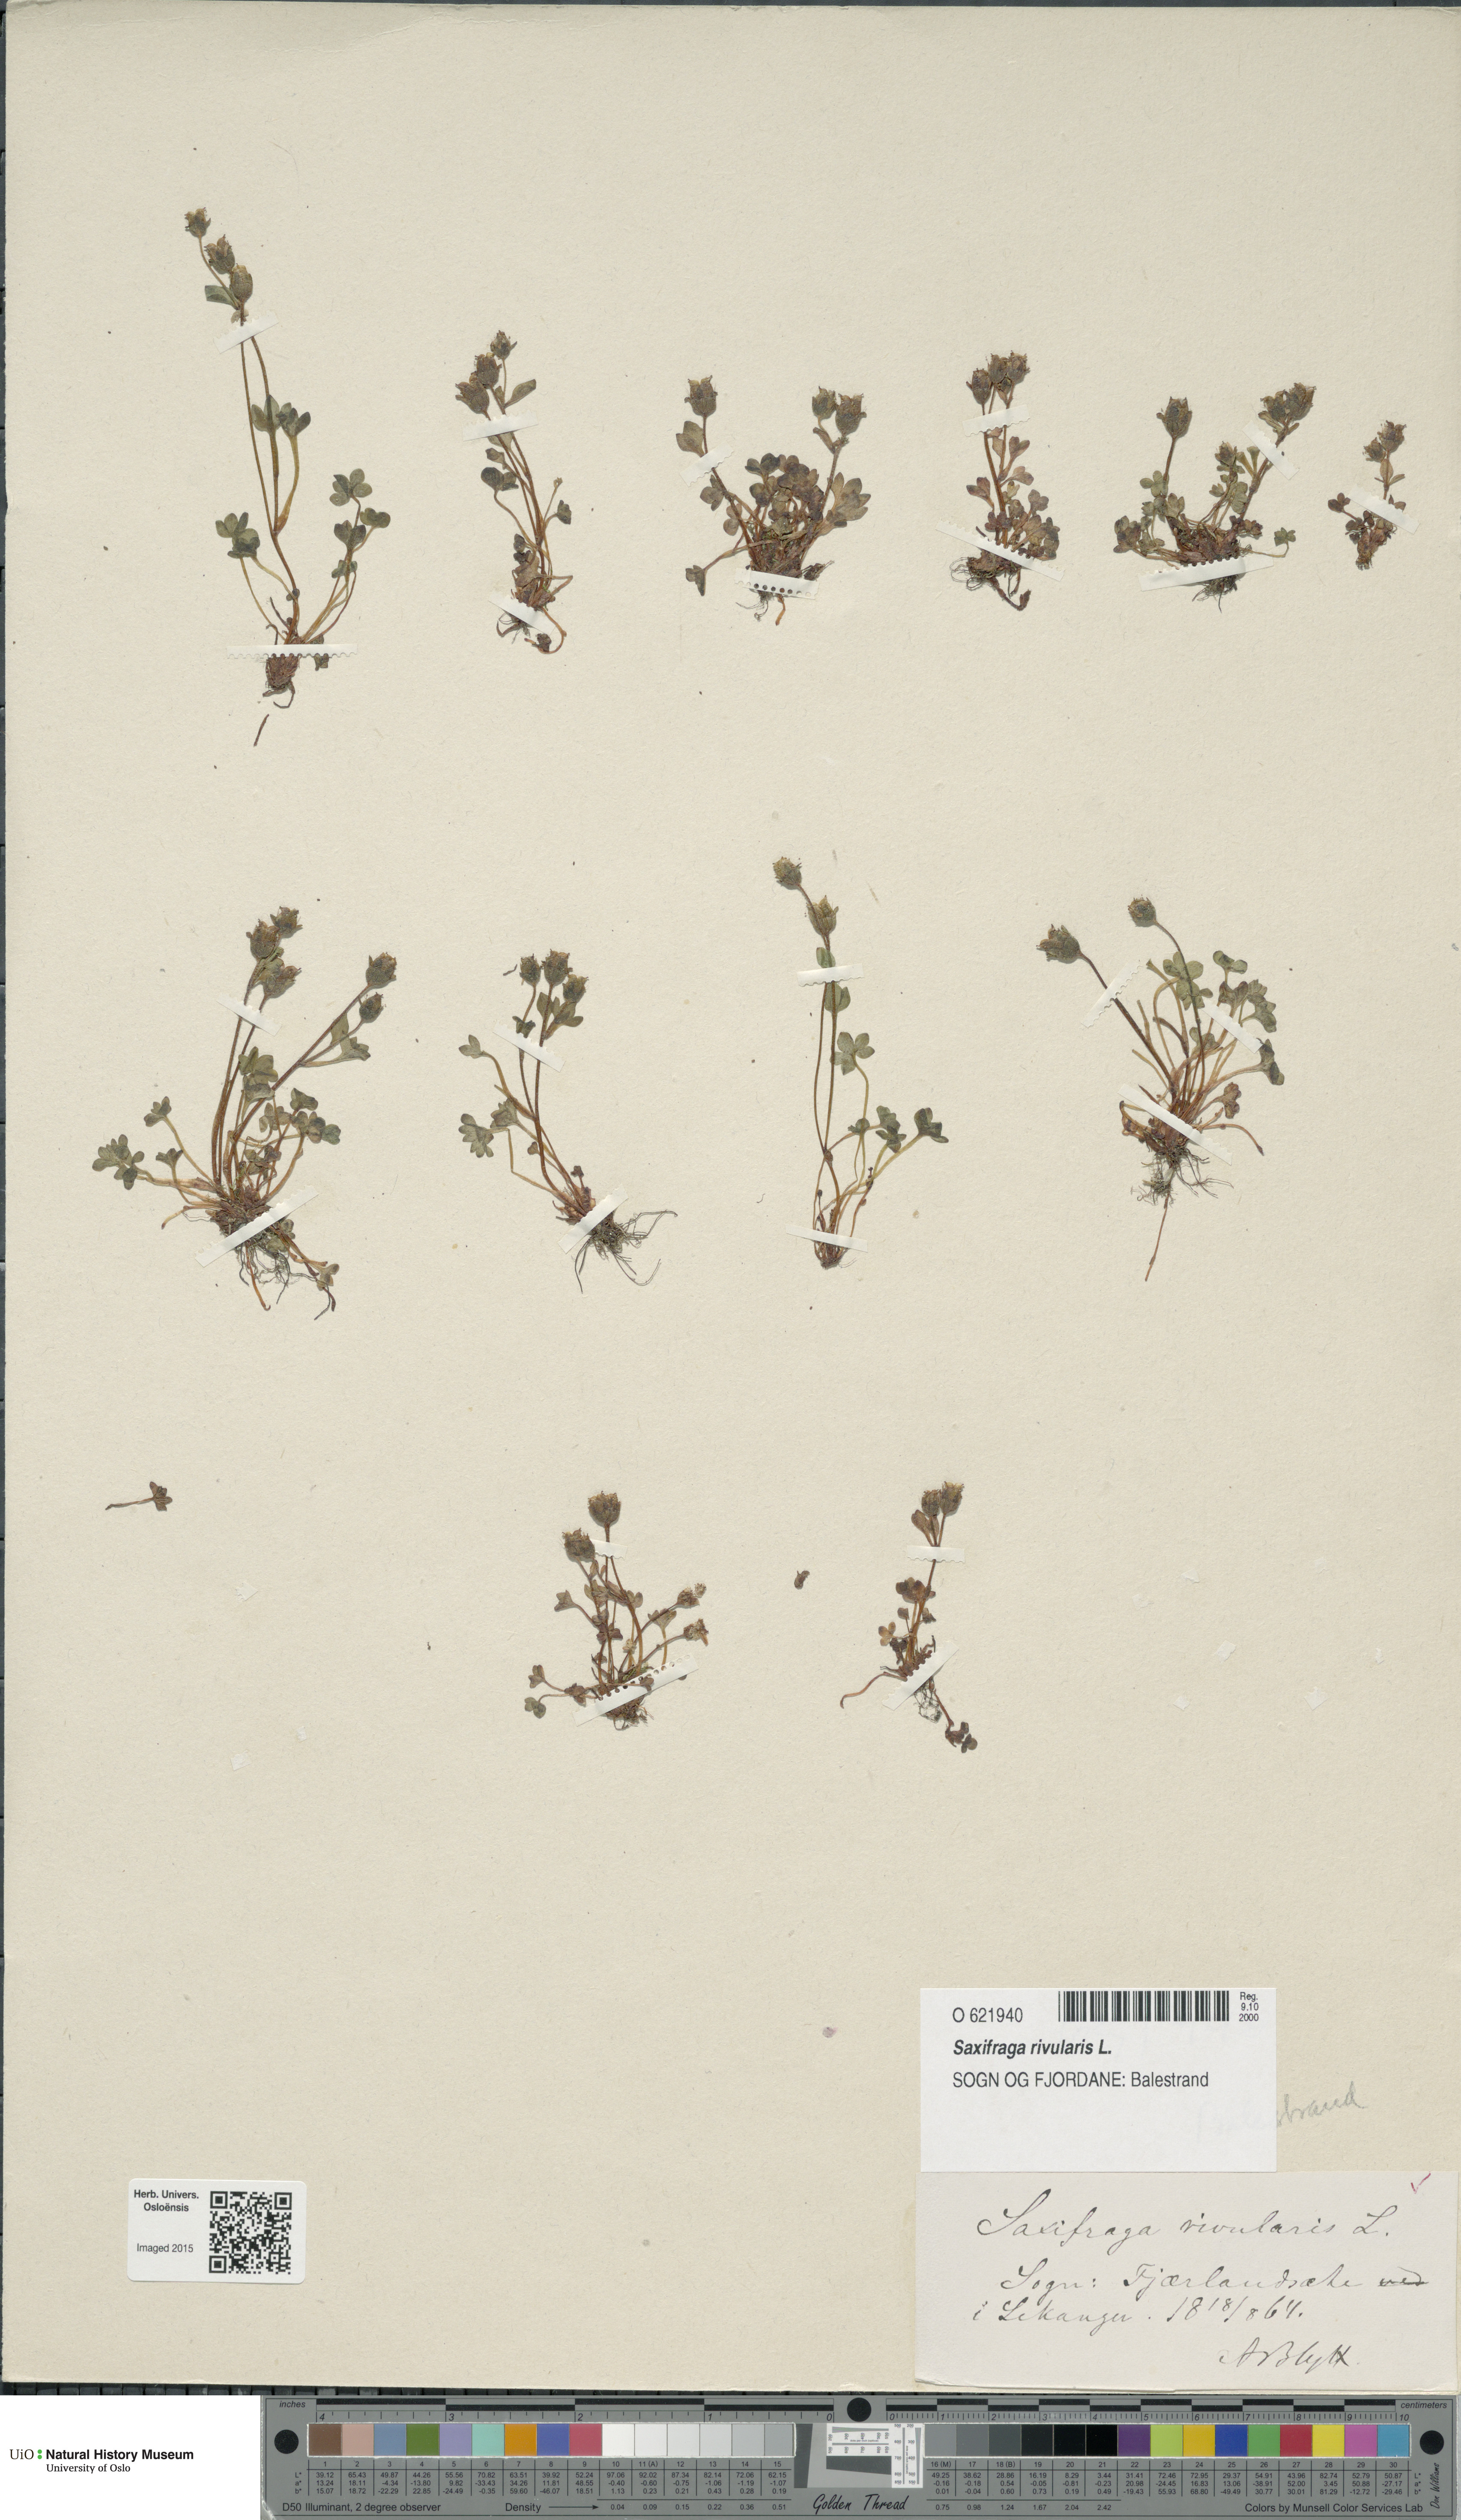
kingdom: Plantae
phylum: Tracheophyta
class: Magnoliopsida
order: Saxifragales
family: Saxifragaceae
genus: Saxifraga
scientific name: Saxifraga rivularis
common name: Highland saxifrage
